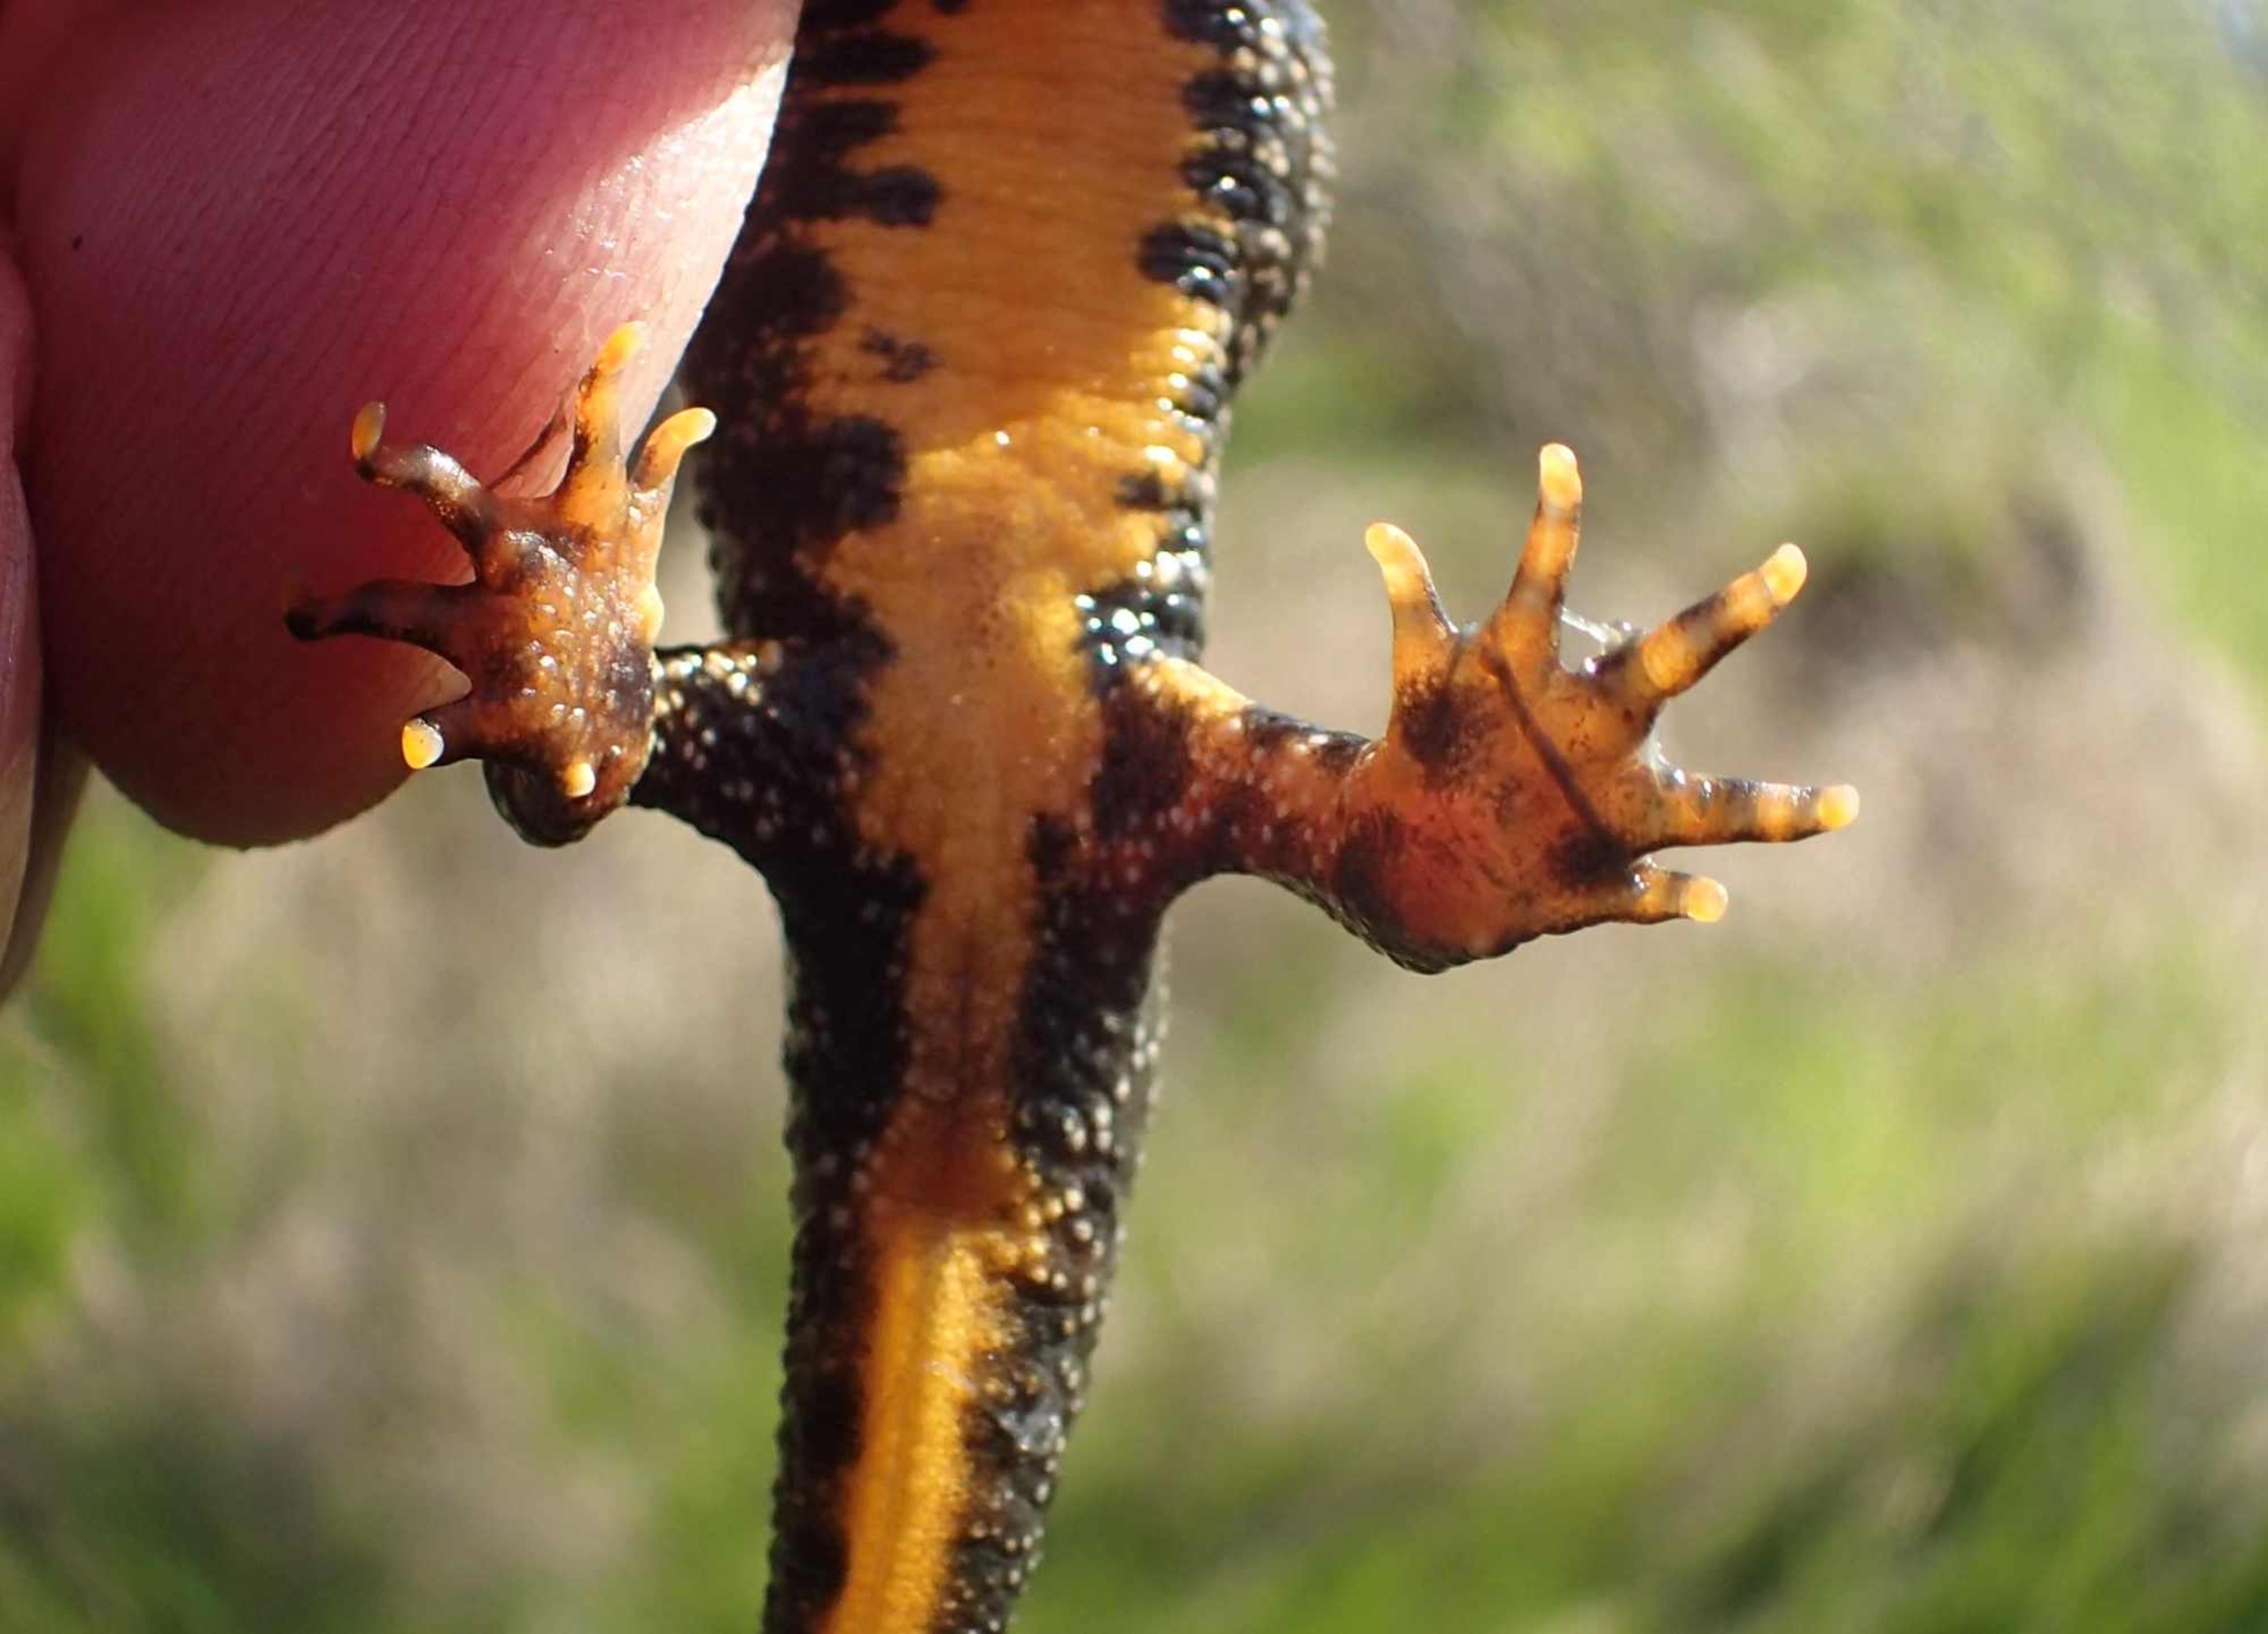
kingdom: Animalia
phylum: Chordata
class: Amphibia
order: Caudata
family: Salamandridae
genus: Triturus
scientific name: Triturus cristatus
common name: Stor vandsalamander
